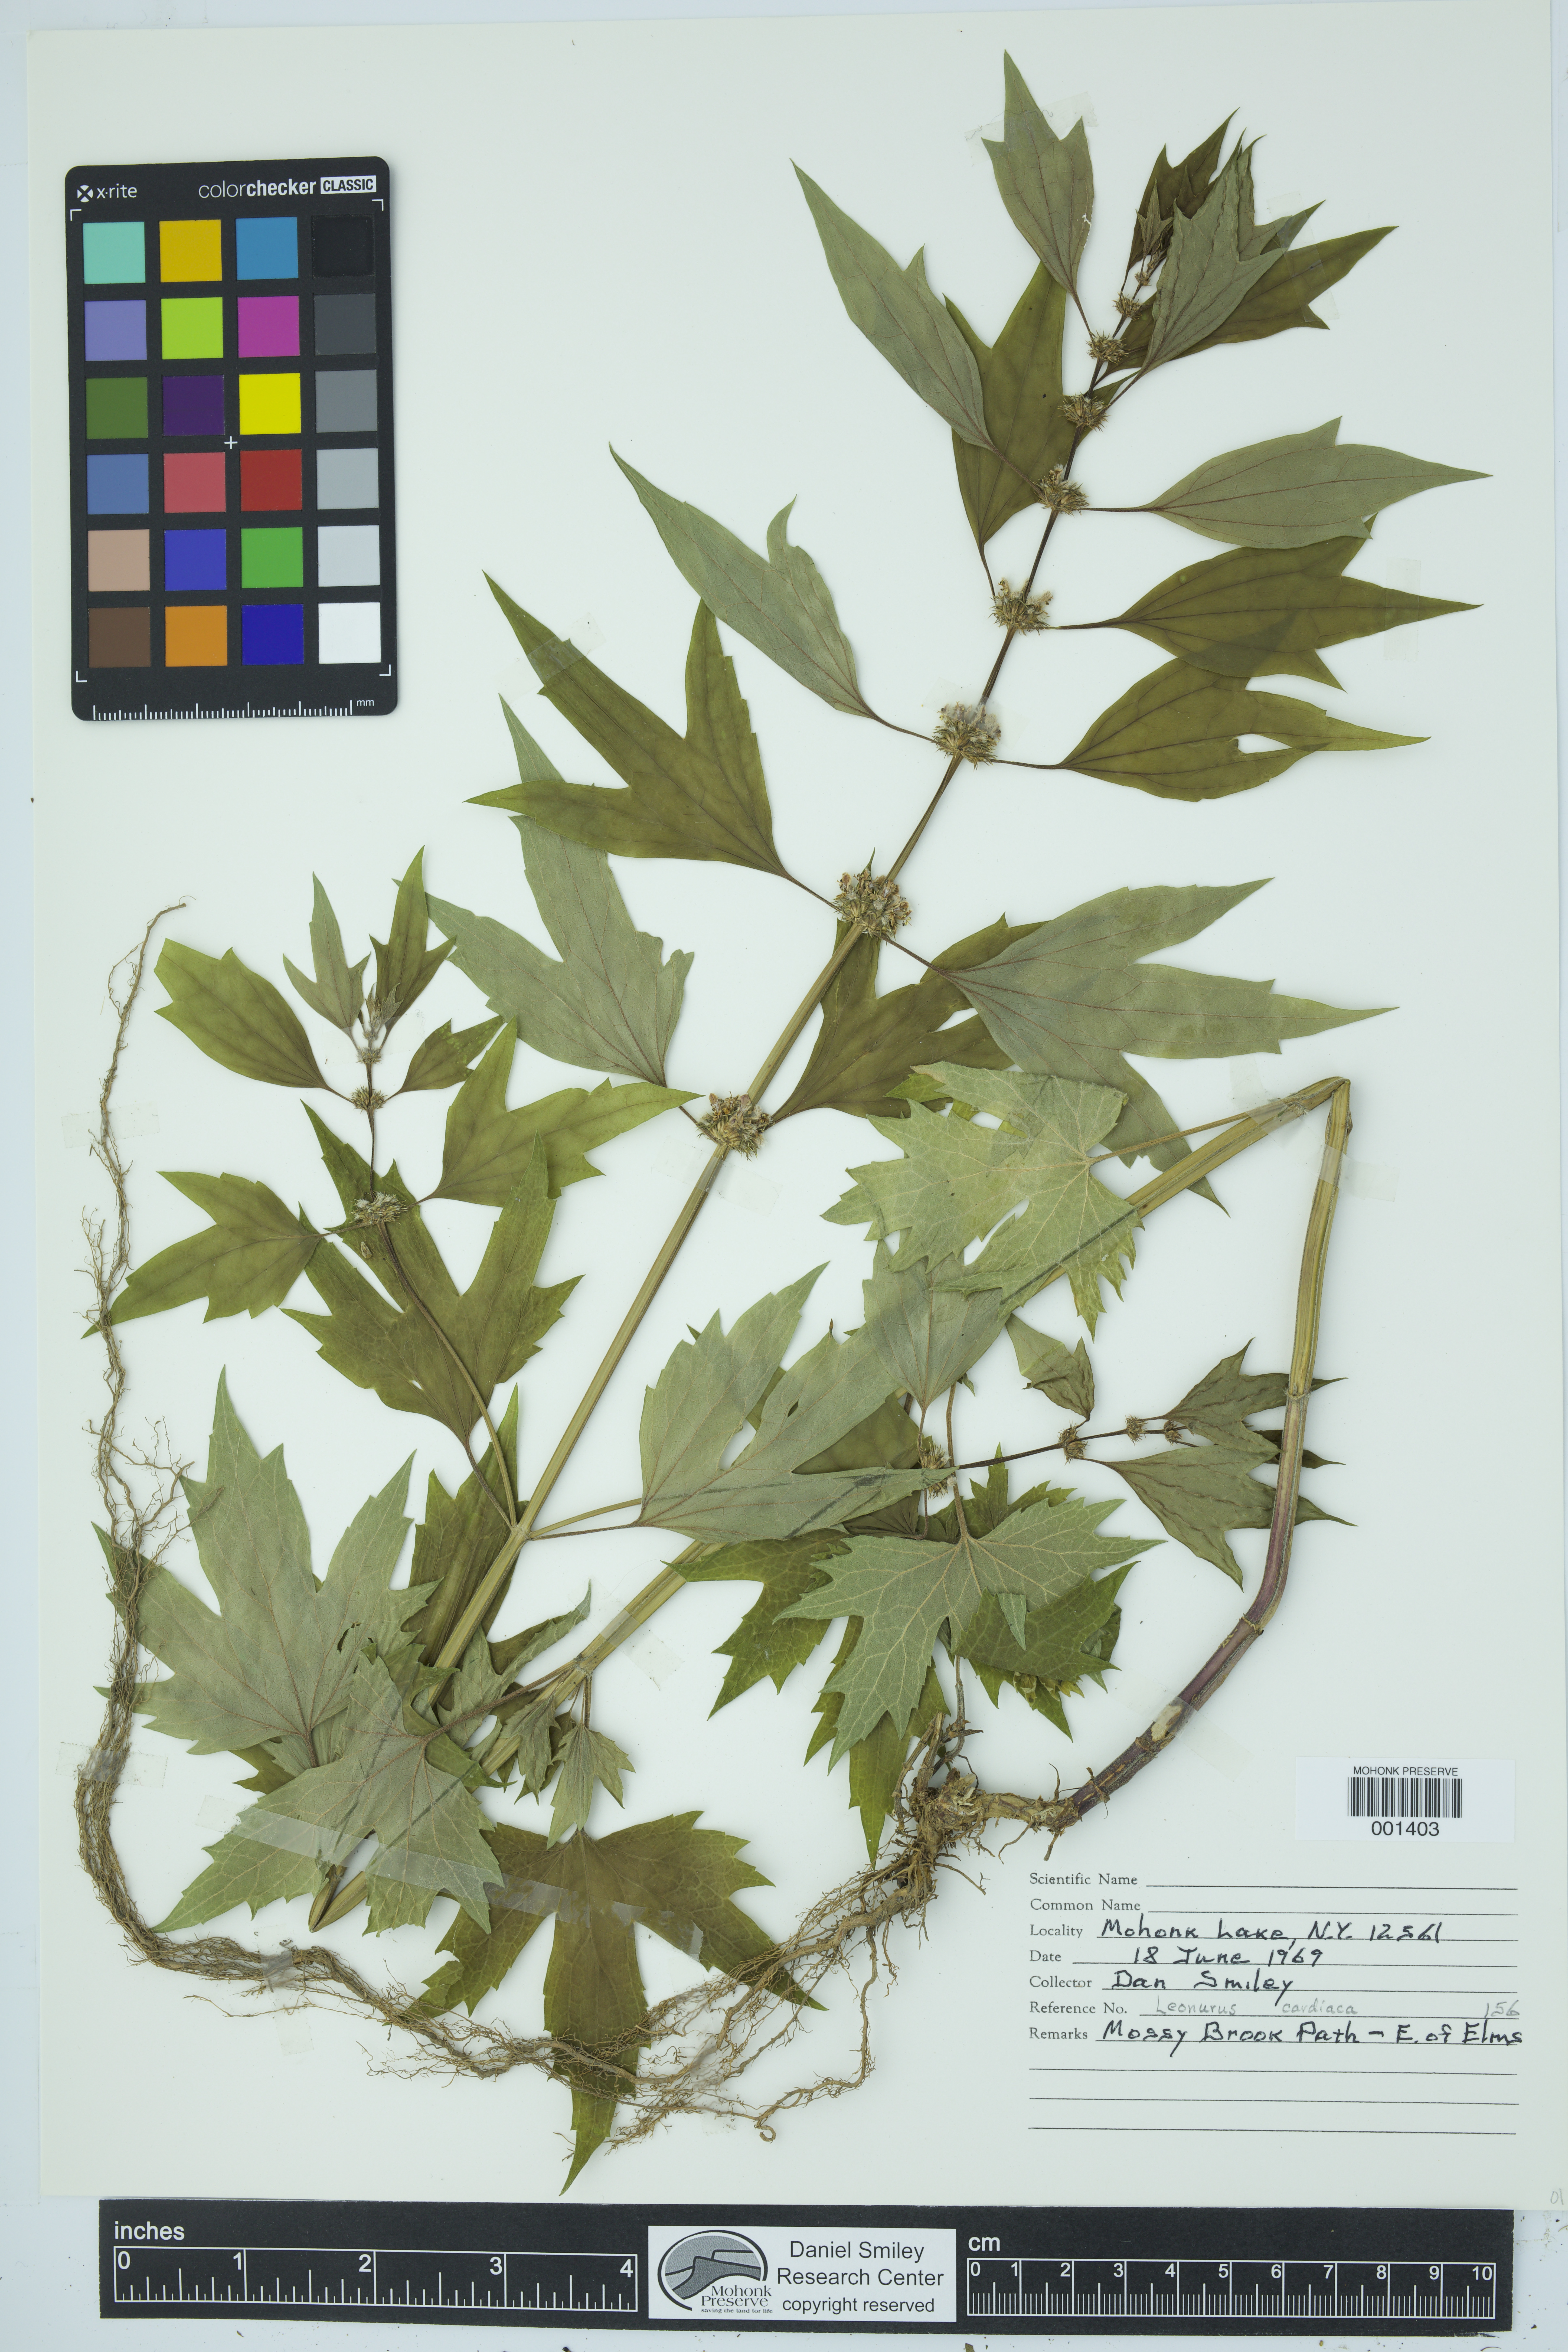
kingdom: Plantae
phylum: Tracheophyta
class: Magnoliopsida
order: Lamiales
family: Lamiaceae
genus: Leonurus
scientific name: Leonurus cardiaca
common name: Motherwort
